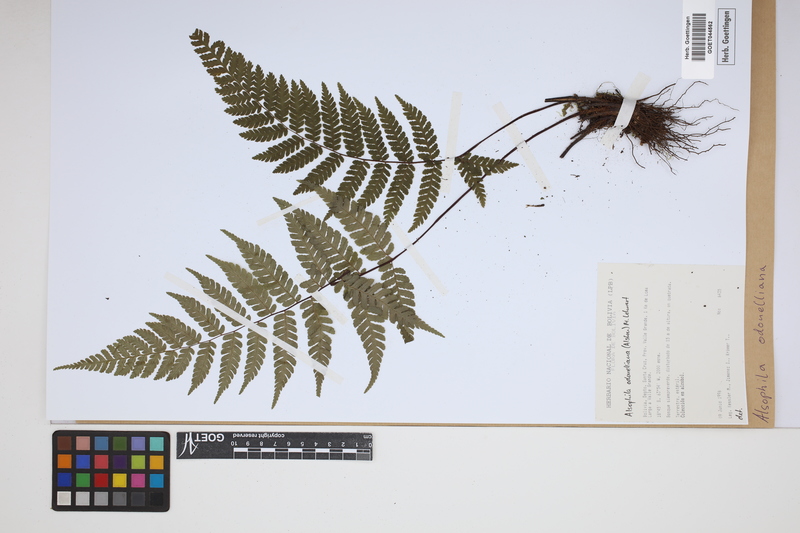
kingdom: Plantae
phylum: Tracheophyta
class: Polypodiopsida
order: Cyatheales
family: Cyatheaceae
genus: Alsophila
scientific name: Alsophila odonelliana
